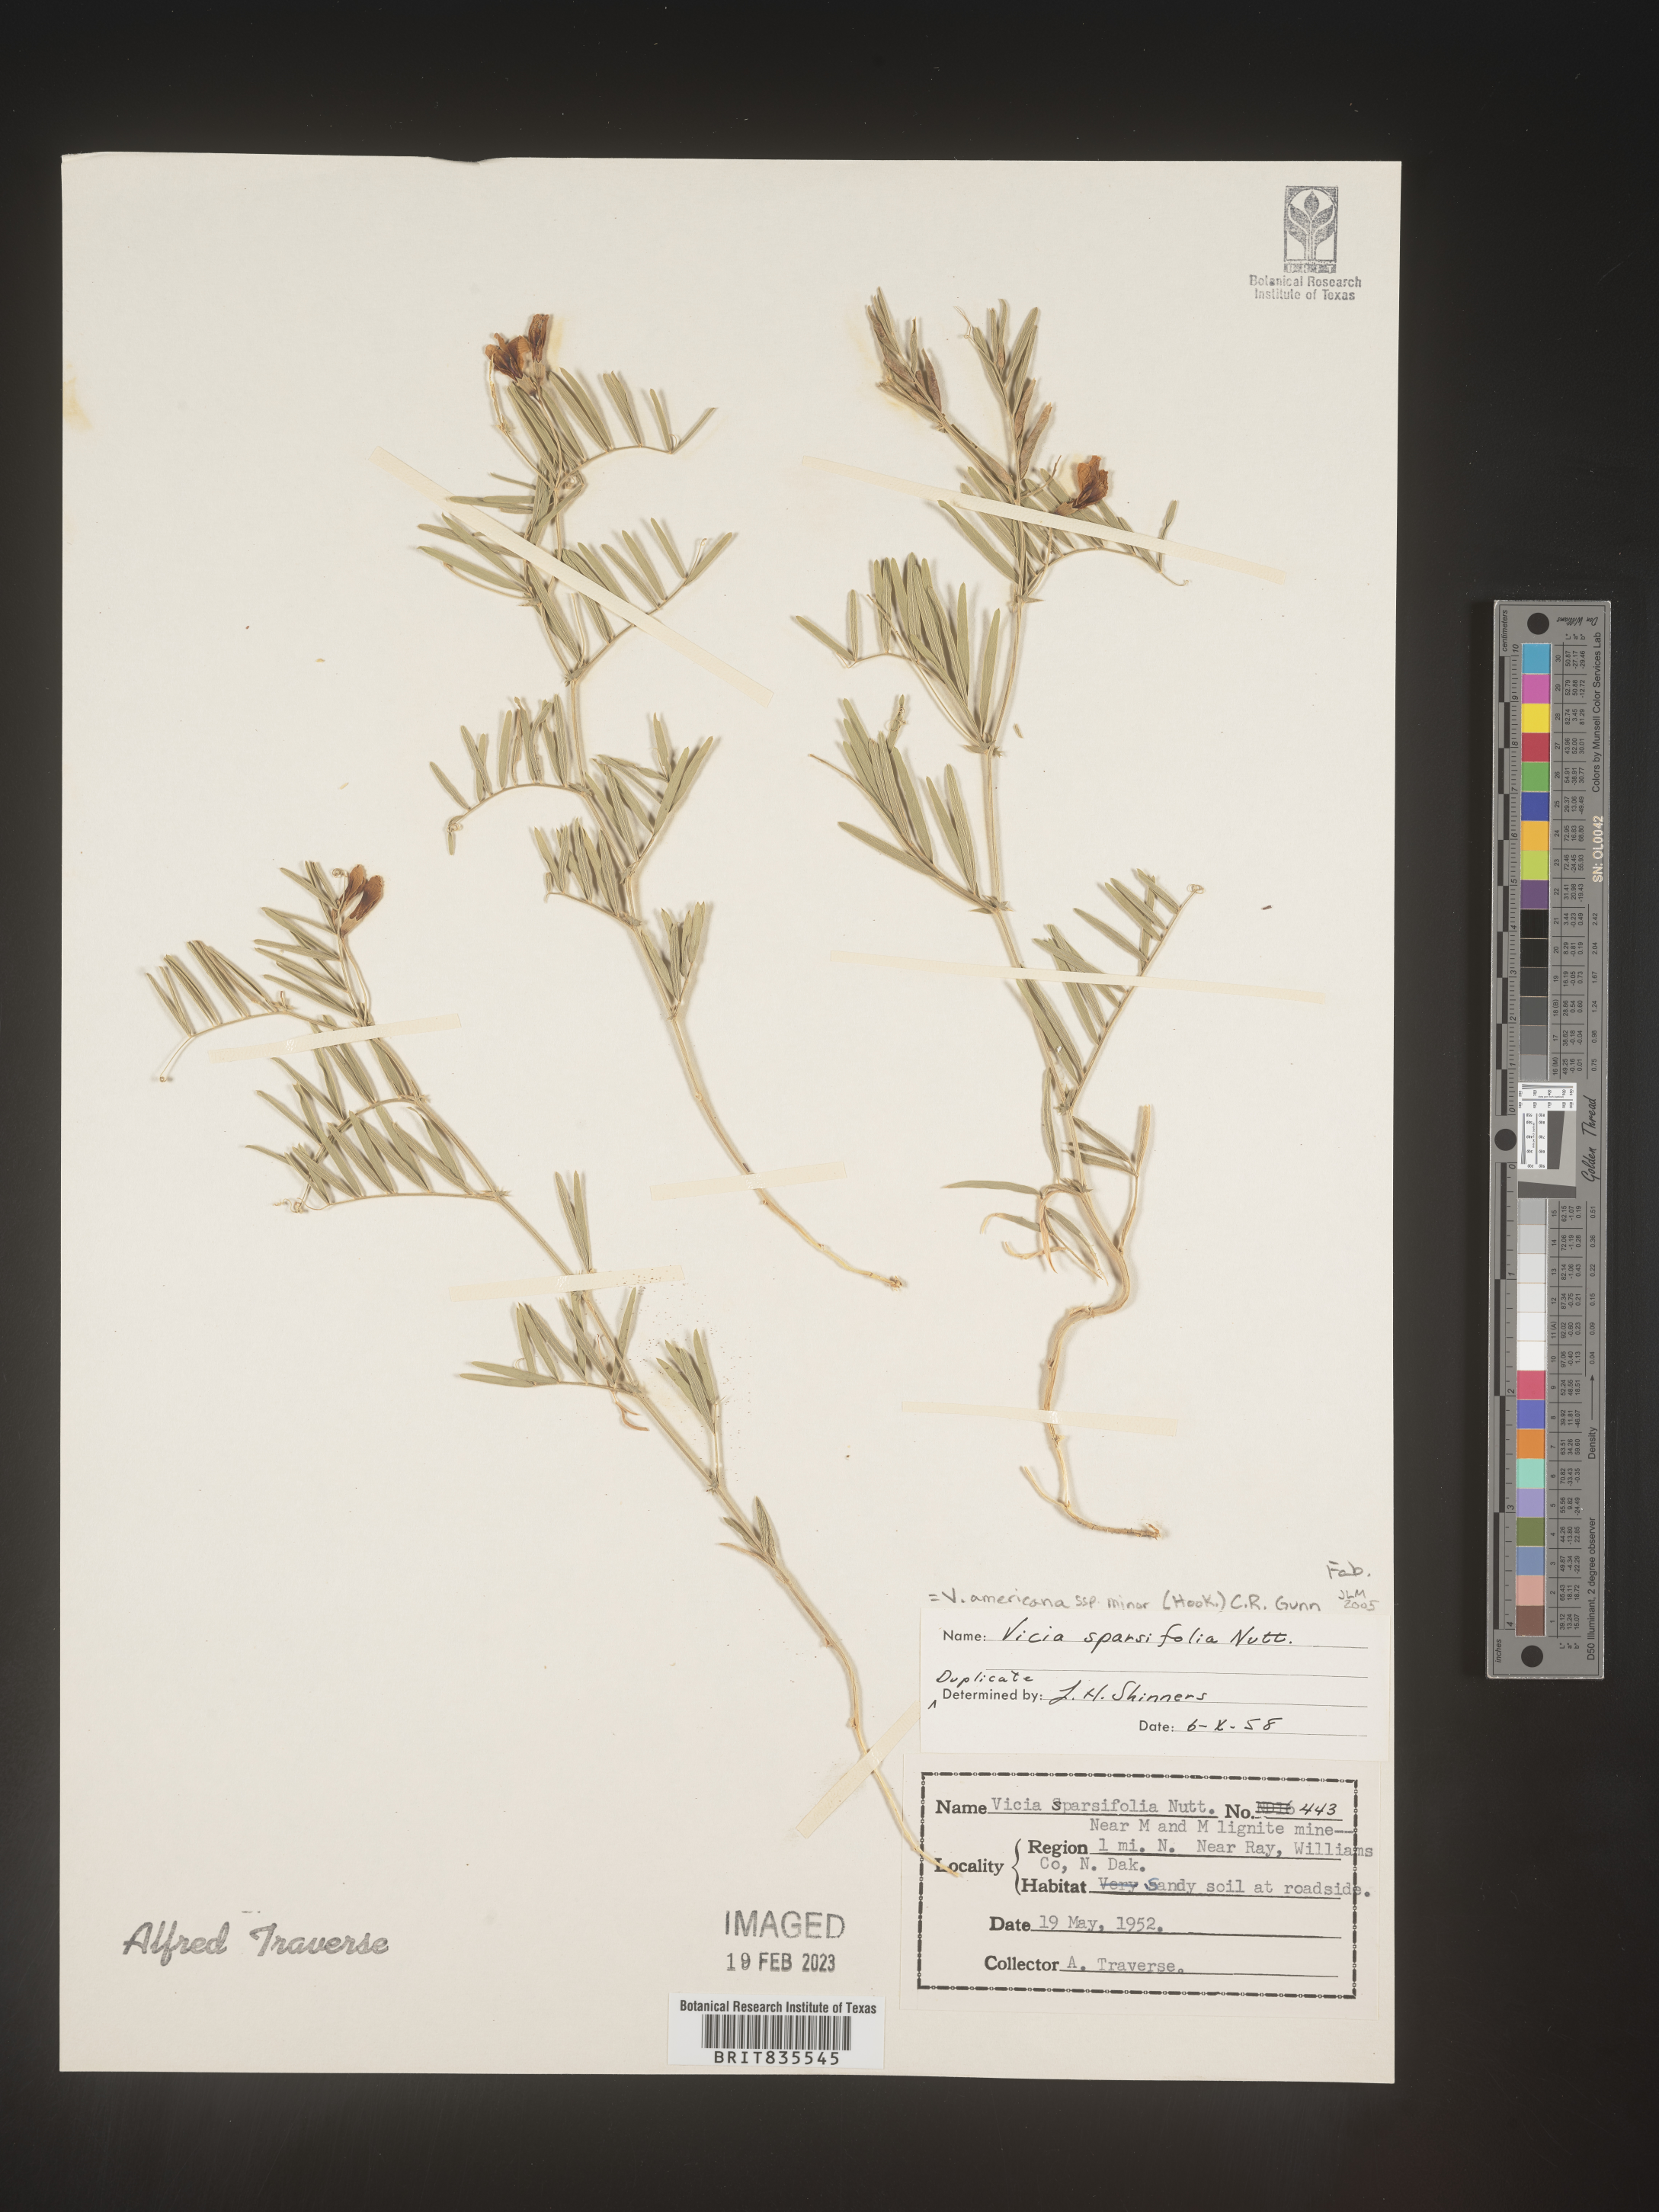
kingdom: Plantae
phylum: Tracheophyta
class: Magnoliopsida
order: Fabales
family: Fabaceae
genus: Vicia
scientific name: Vicia americana
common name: American vetch
